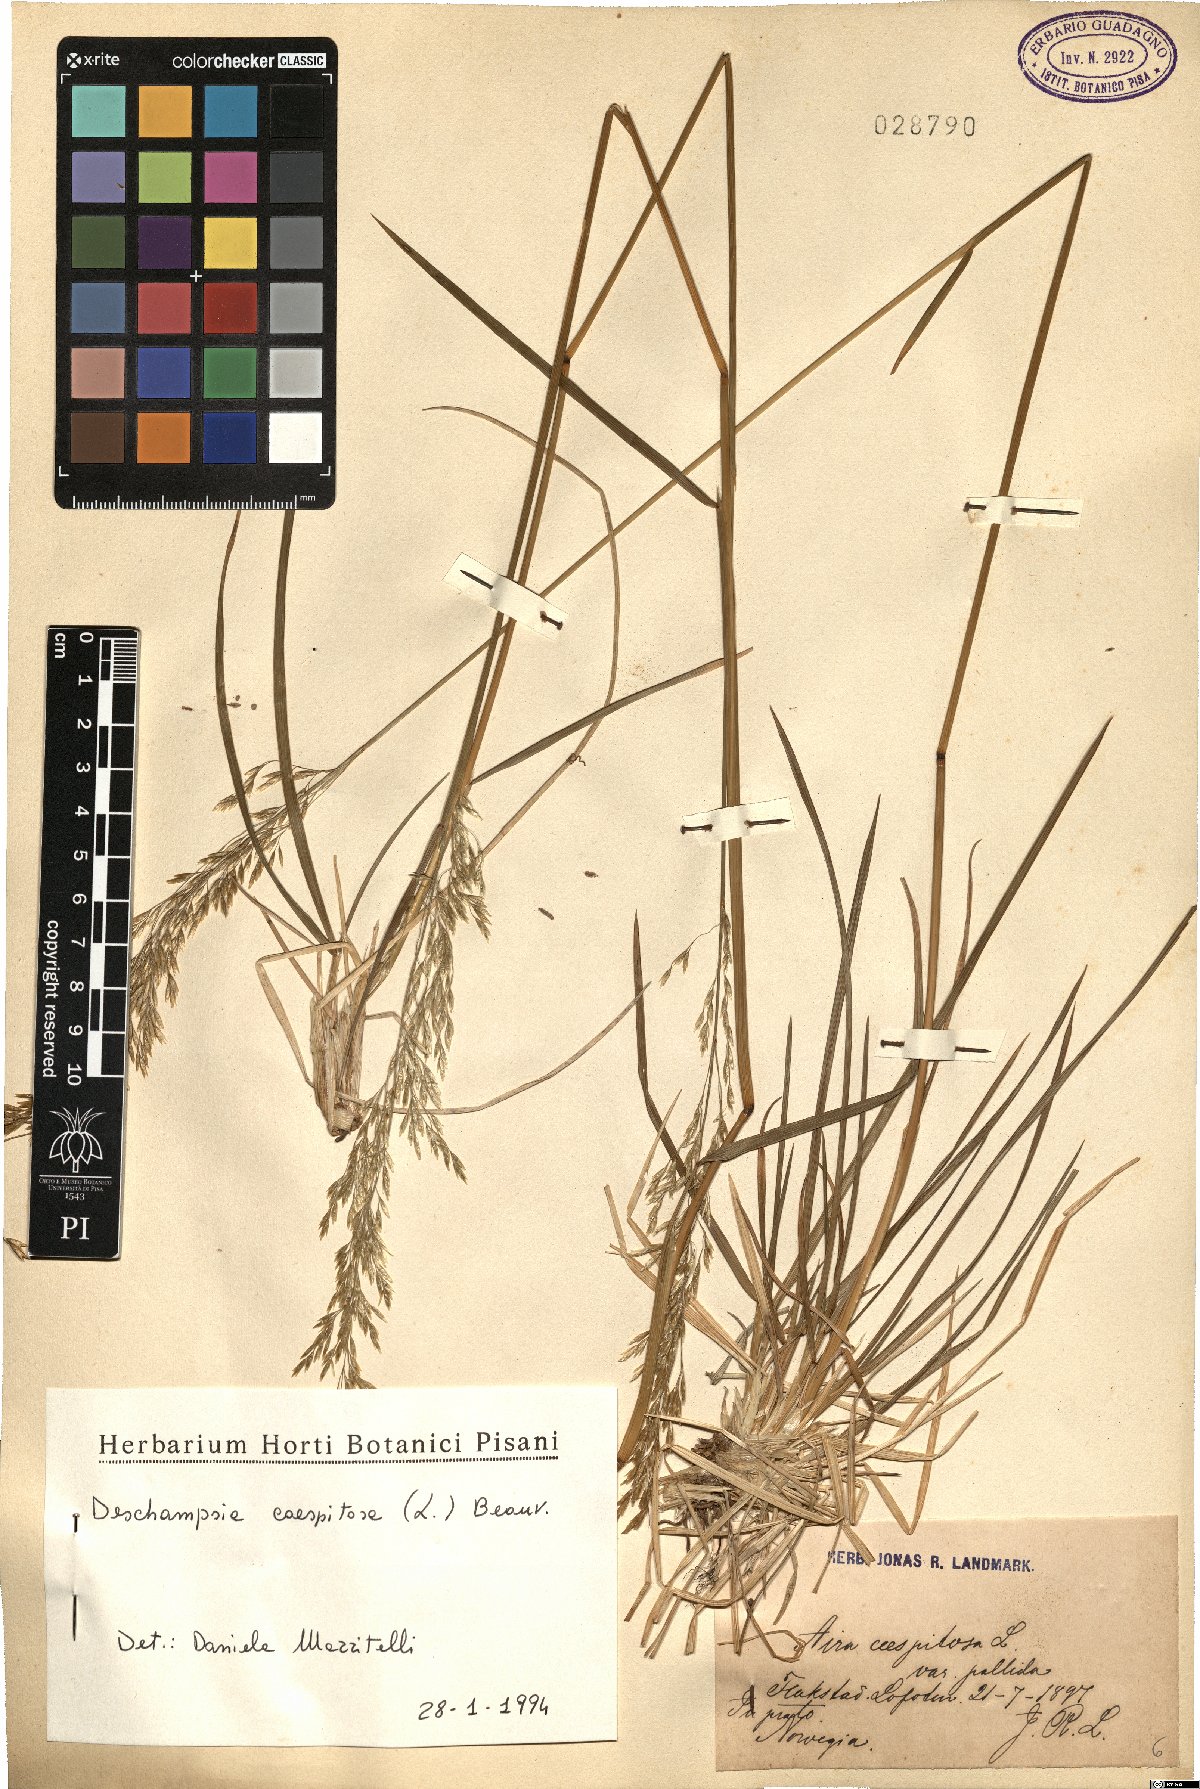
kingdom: Plantae
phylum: Tracheophyta
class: Liliopsida
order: Poales
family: Poaceae
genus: Deschampsia
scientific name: Deschampsia cespitosa
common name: Tufted hair-grass
